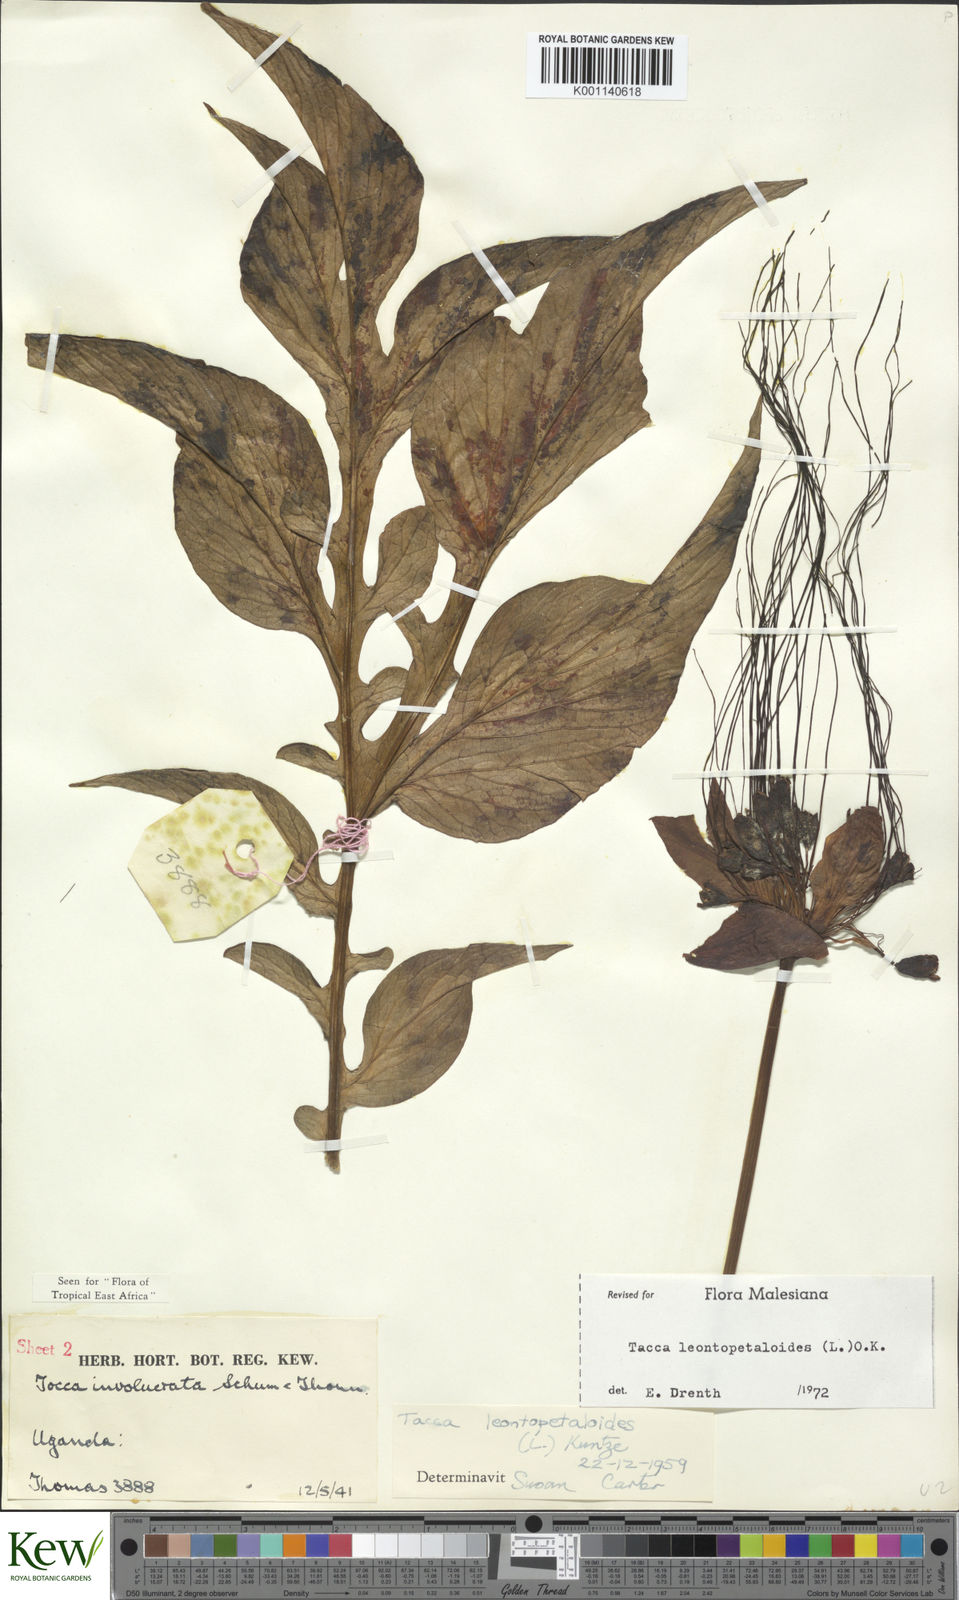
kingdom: Plantae
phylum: Tracheophyta
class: Liliopsida
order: Dioscoreales
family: Dioscoreaceae
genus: Tacca
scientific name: Tacca leontopetaloides
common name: Arrowroot
